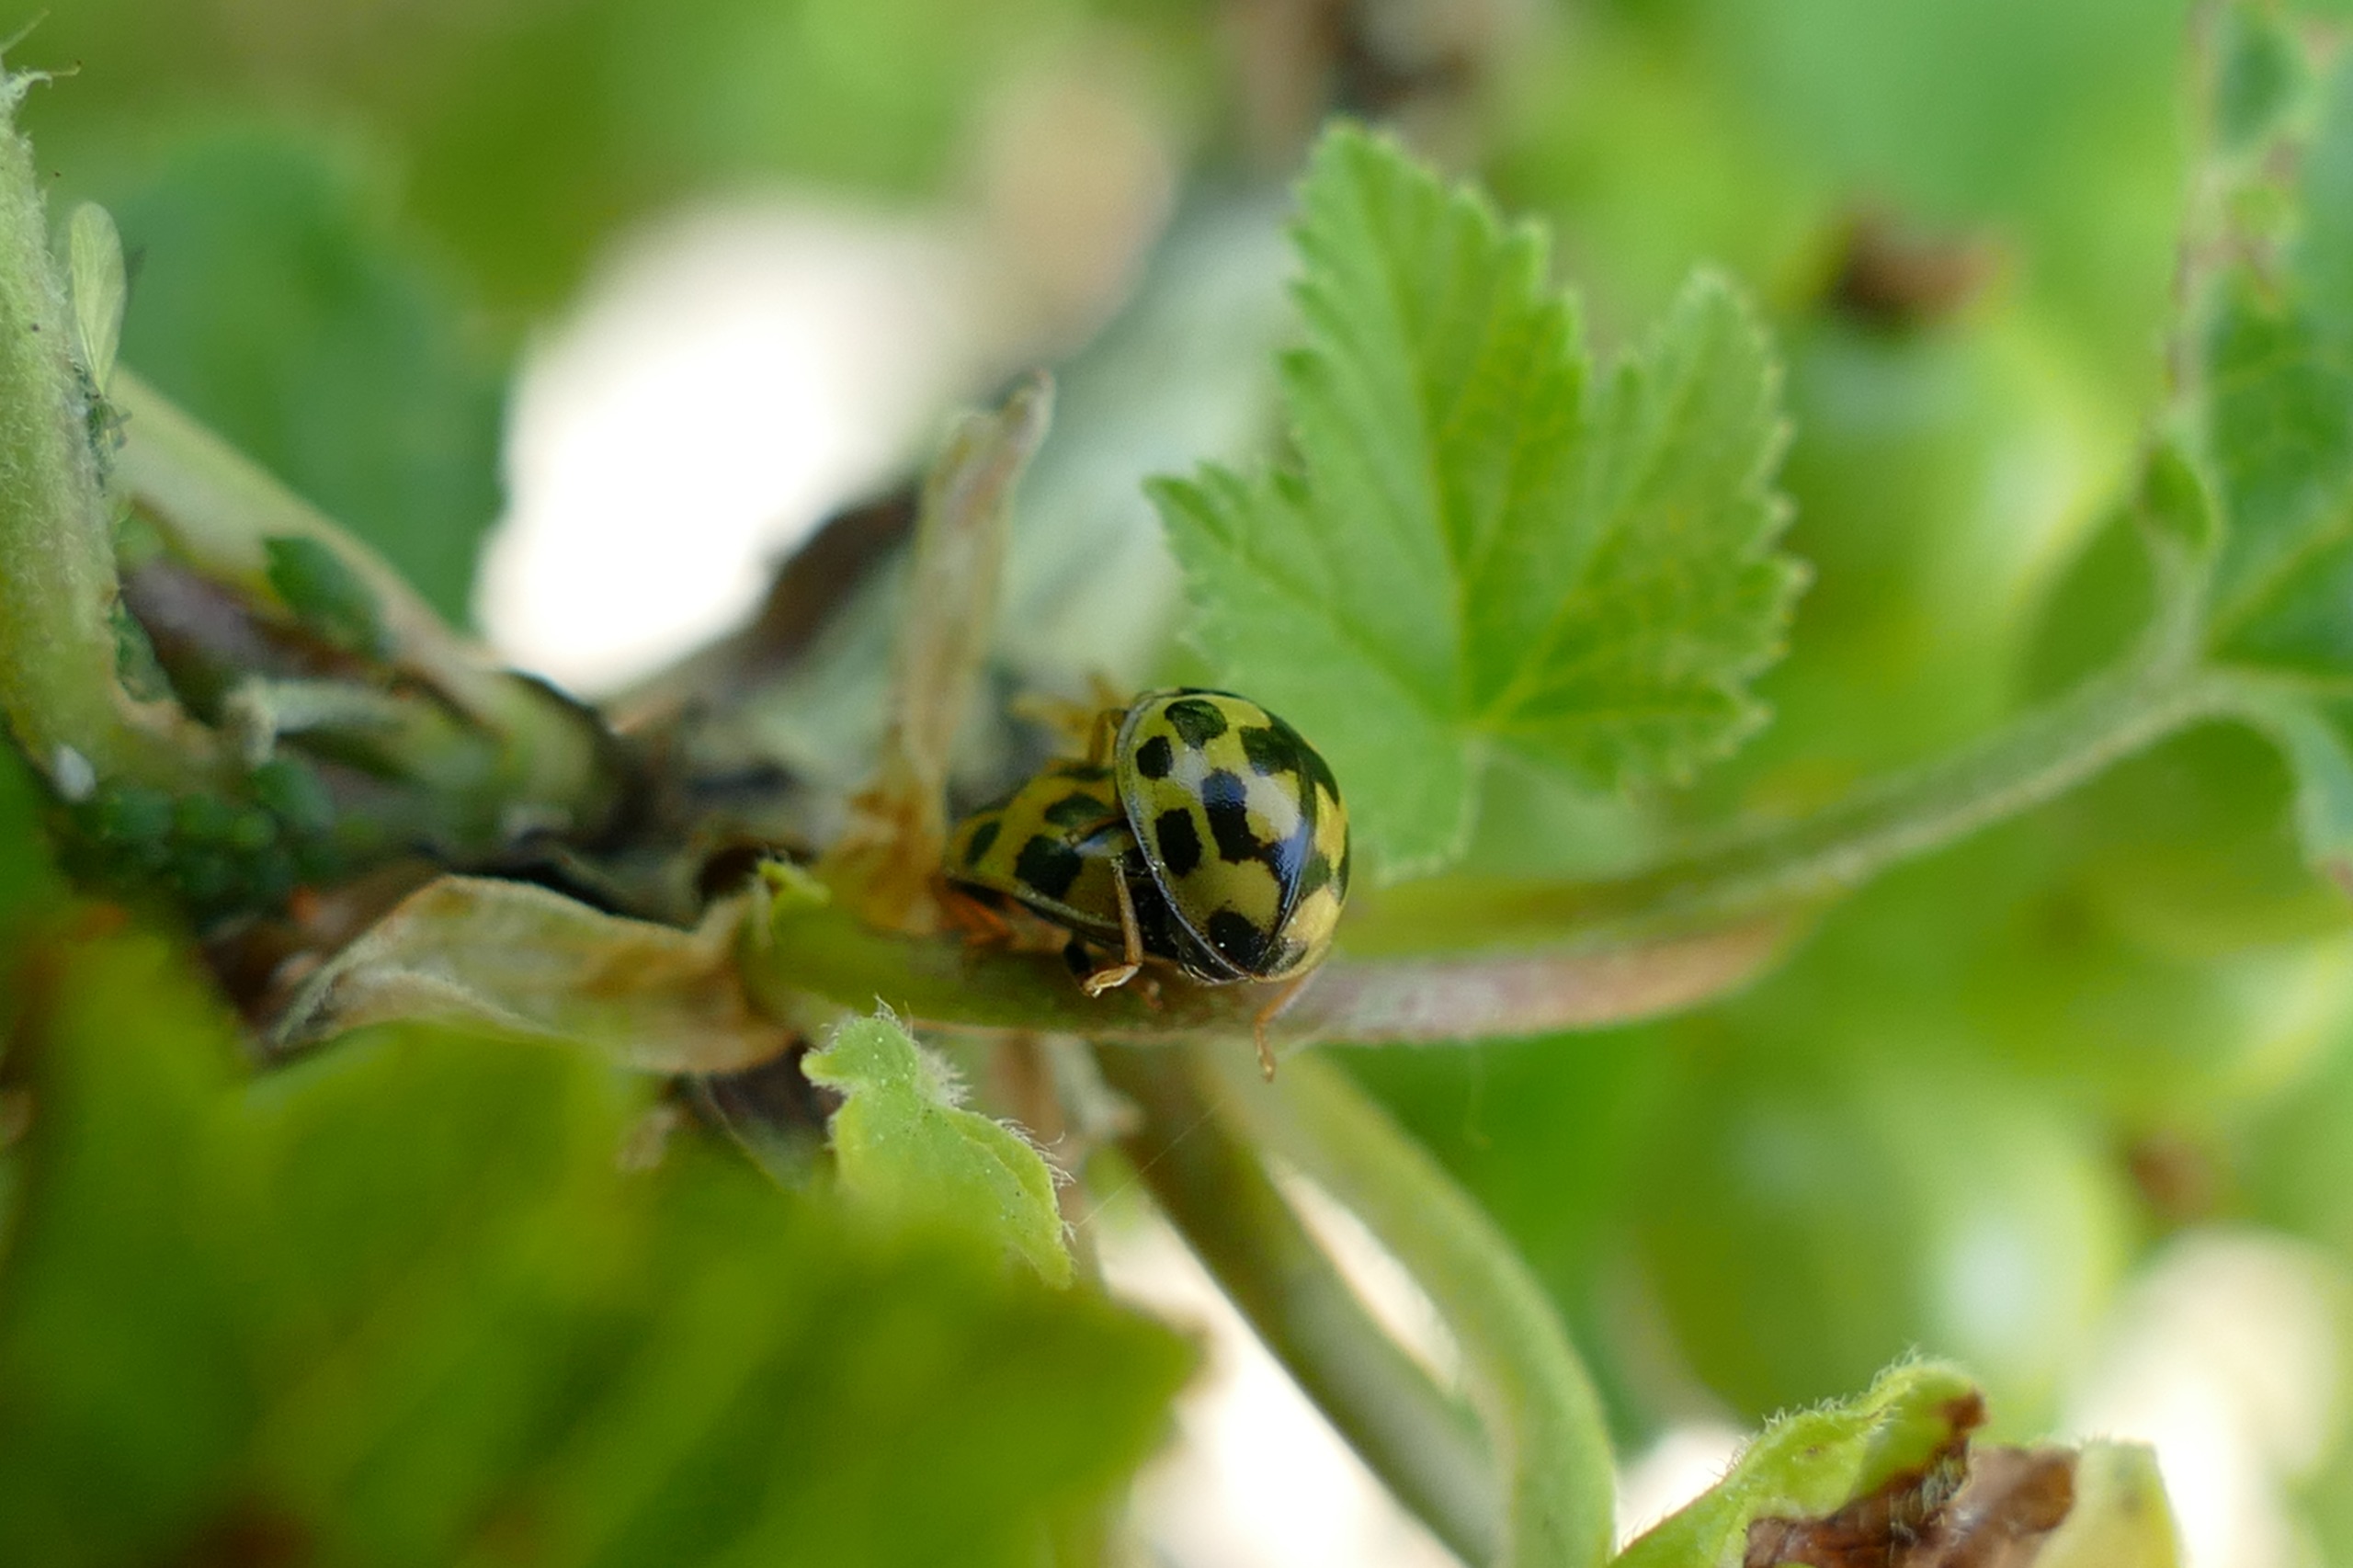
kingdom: Animalia
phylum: Arthropoda
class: Insecta
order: Coleoptera
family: Coccinellidae
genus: Propylaea
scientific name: Propylaea quatuordecimpunctata
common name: Skakbræt
